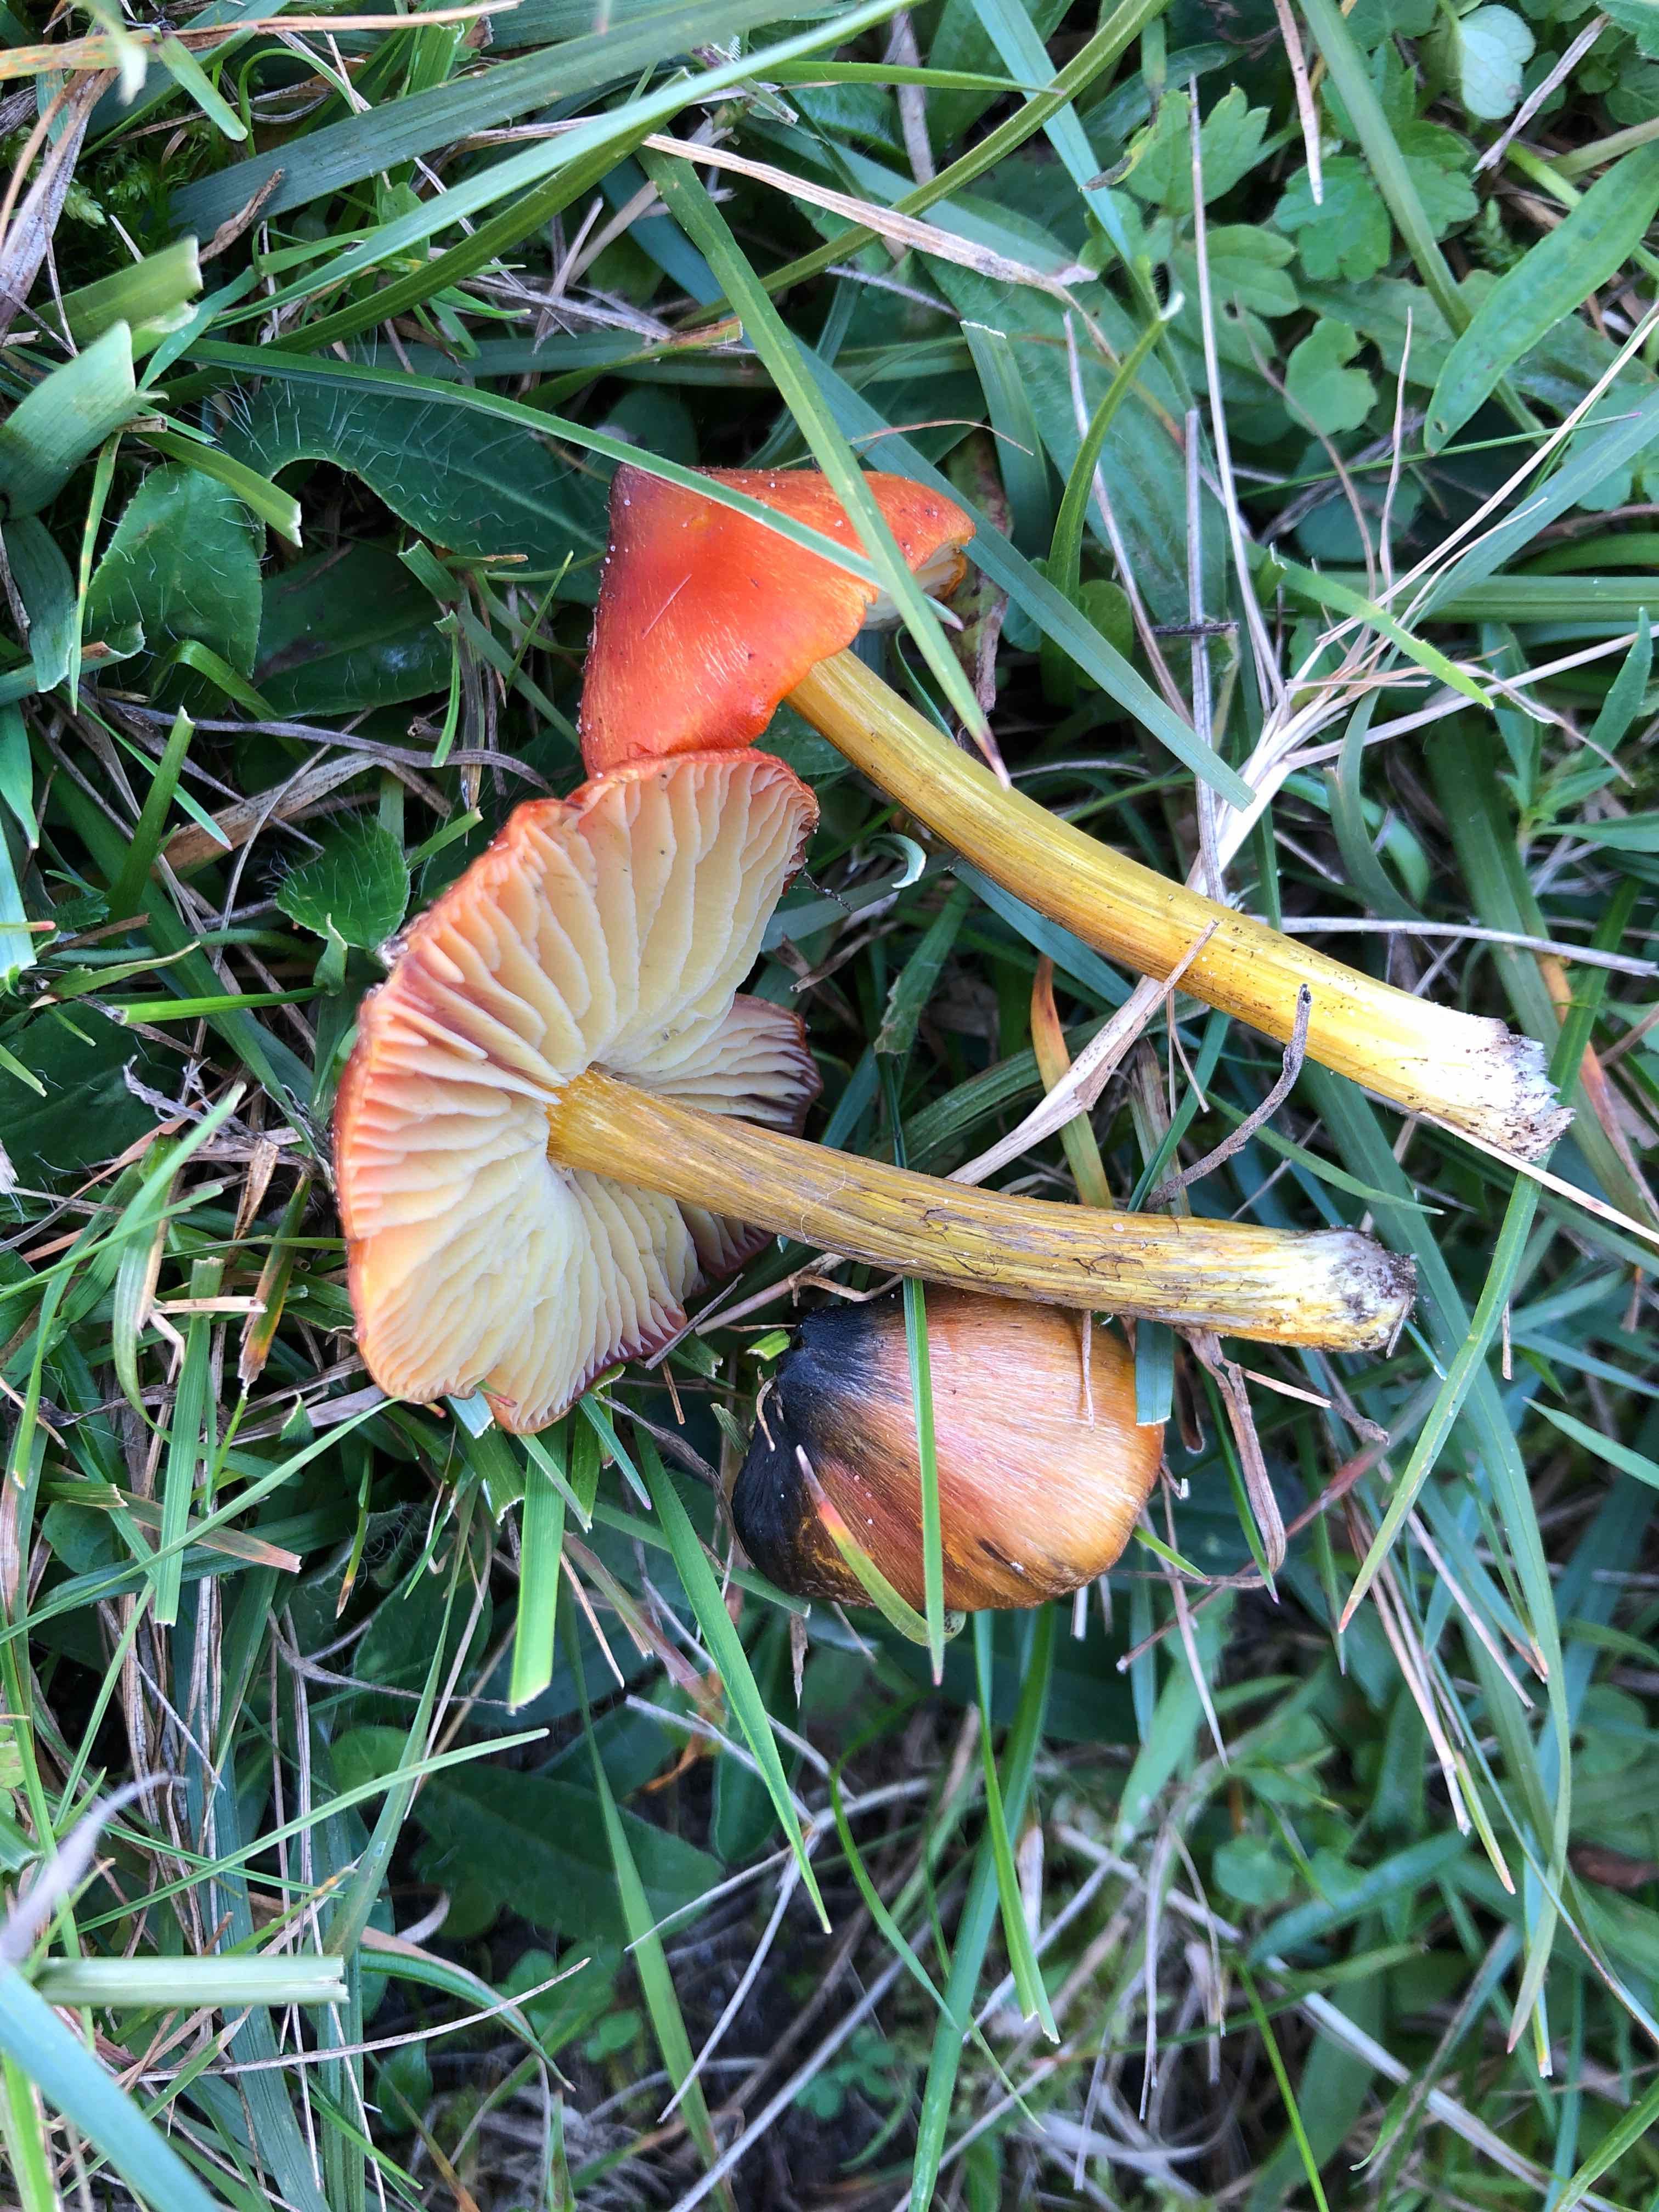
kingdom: Fungi
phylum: Basidiomycota
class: Agaricomycetes
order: Agaricales
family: Hygrophoraceae
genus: Hygrocybe
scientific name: Hygrocybe conica
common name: kegle-vokshat
